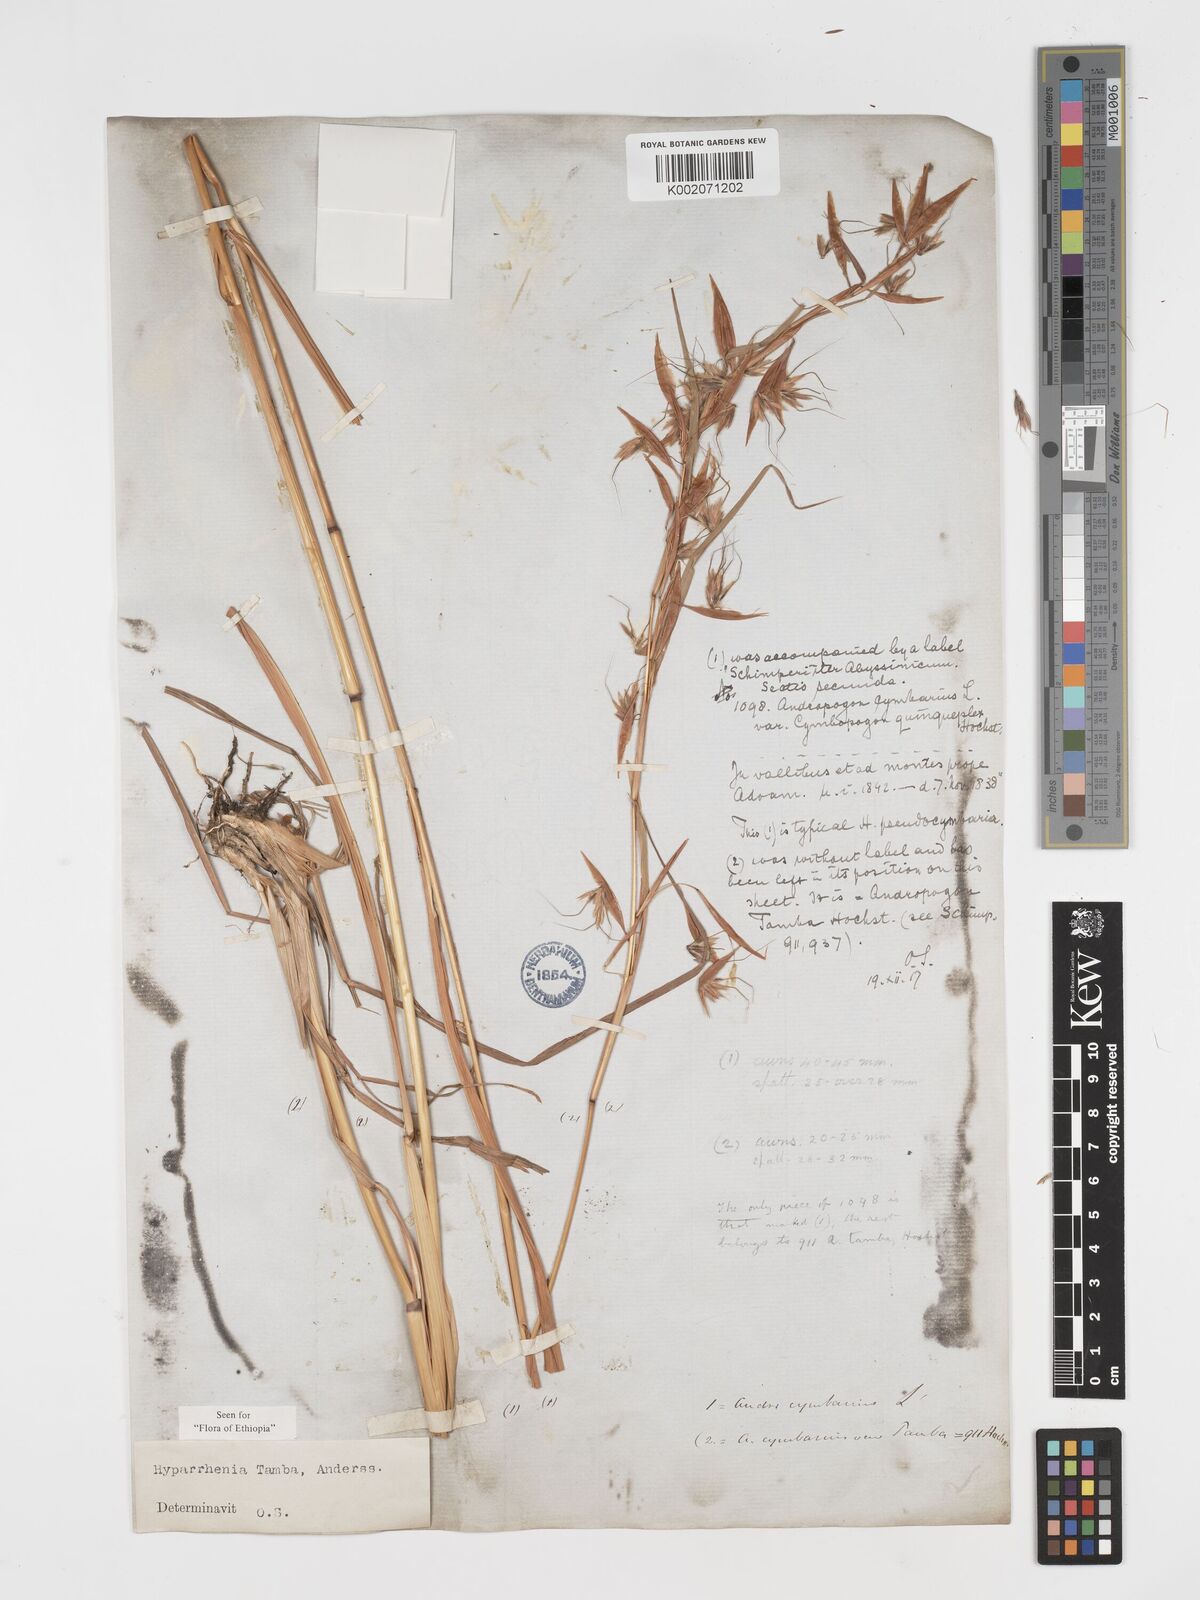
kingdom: Plantae
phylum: Tracheophyta
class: Liliopsida
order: Poales
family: Poaceae
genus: Hyparrhenia
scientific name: Hyparrhenia tamba
